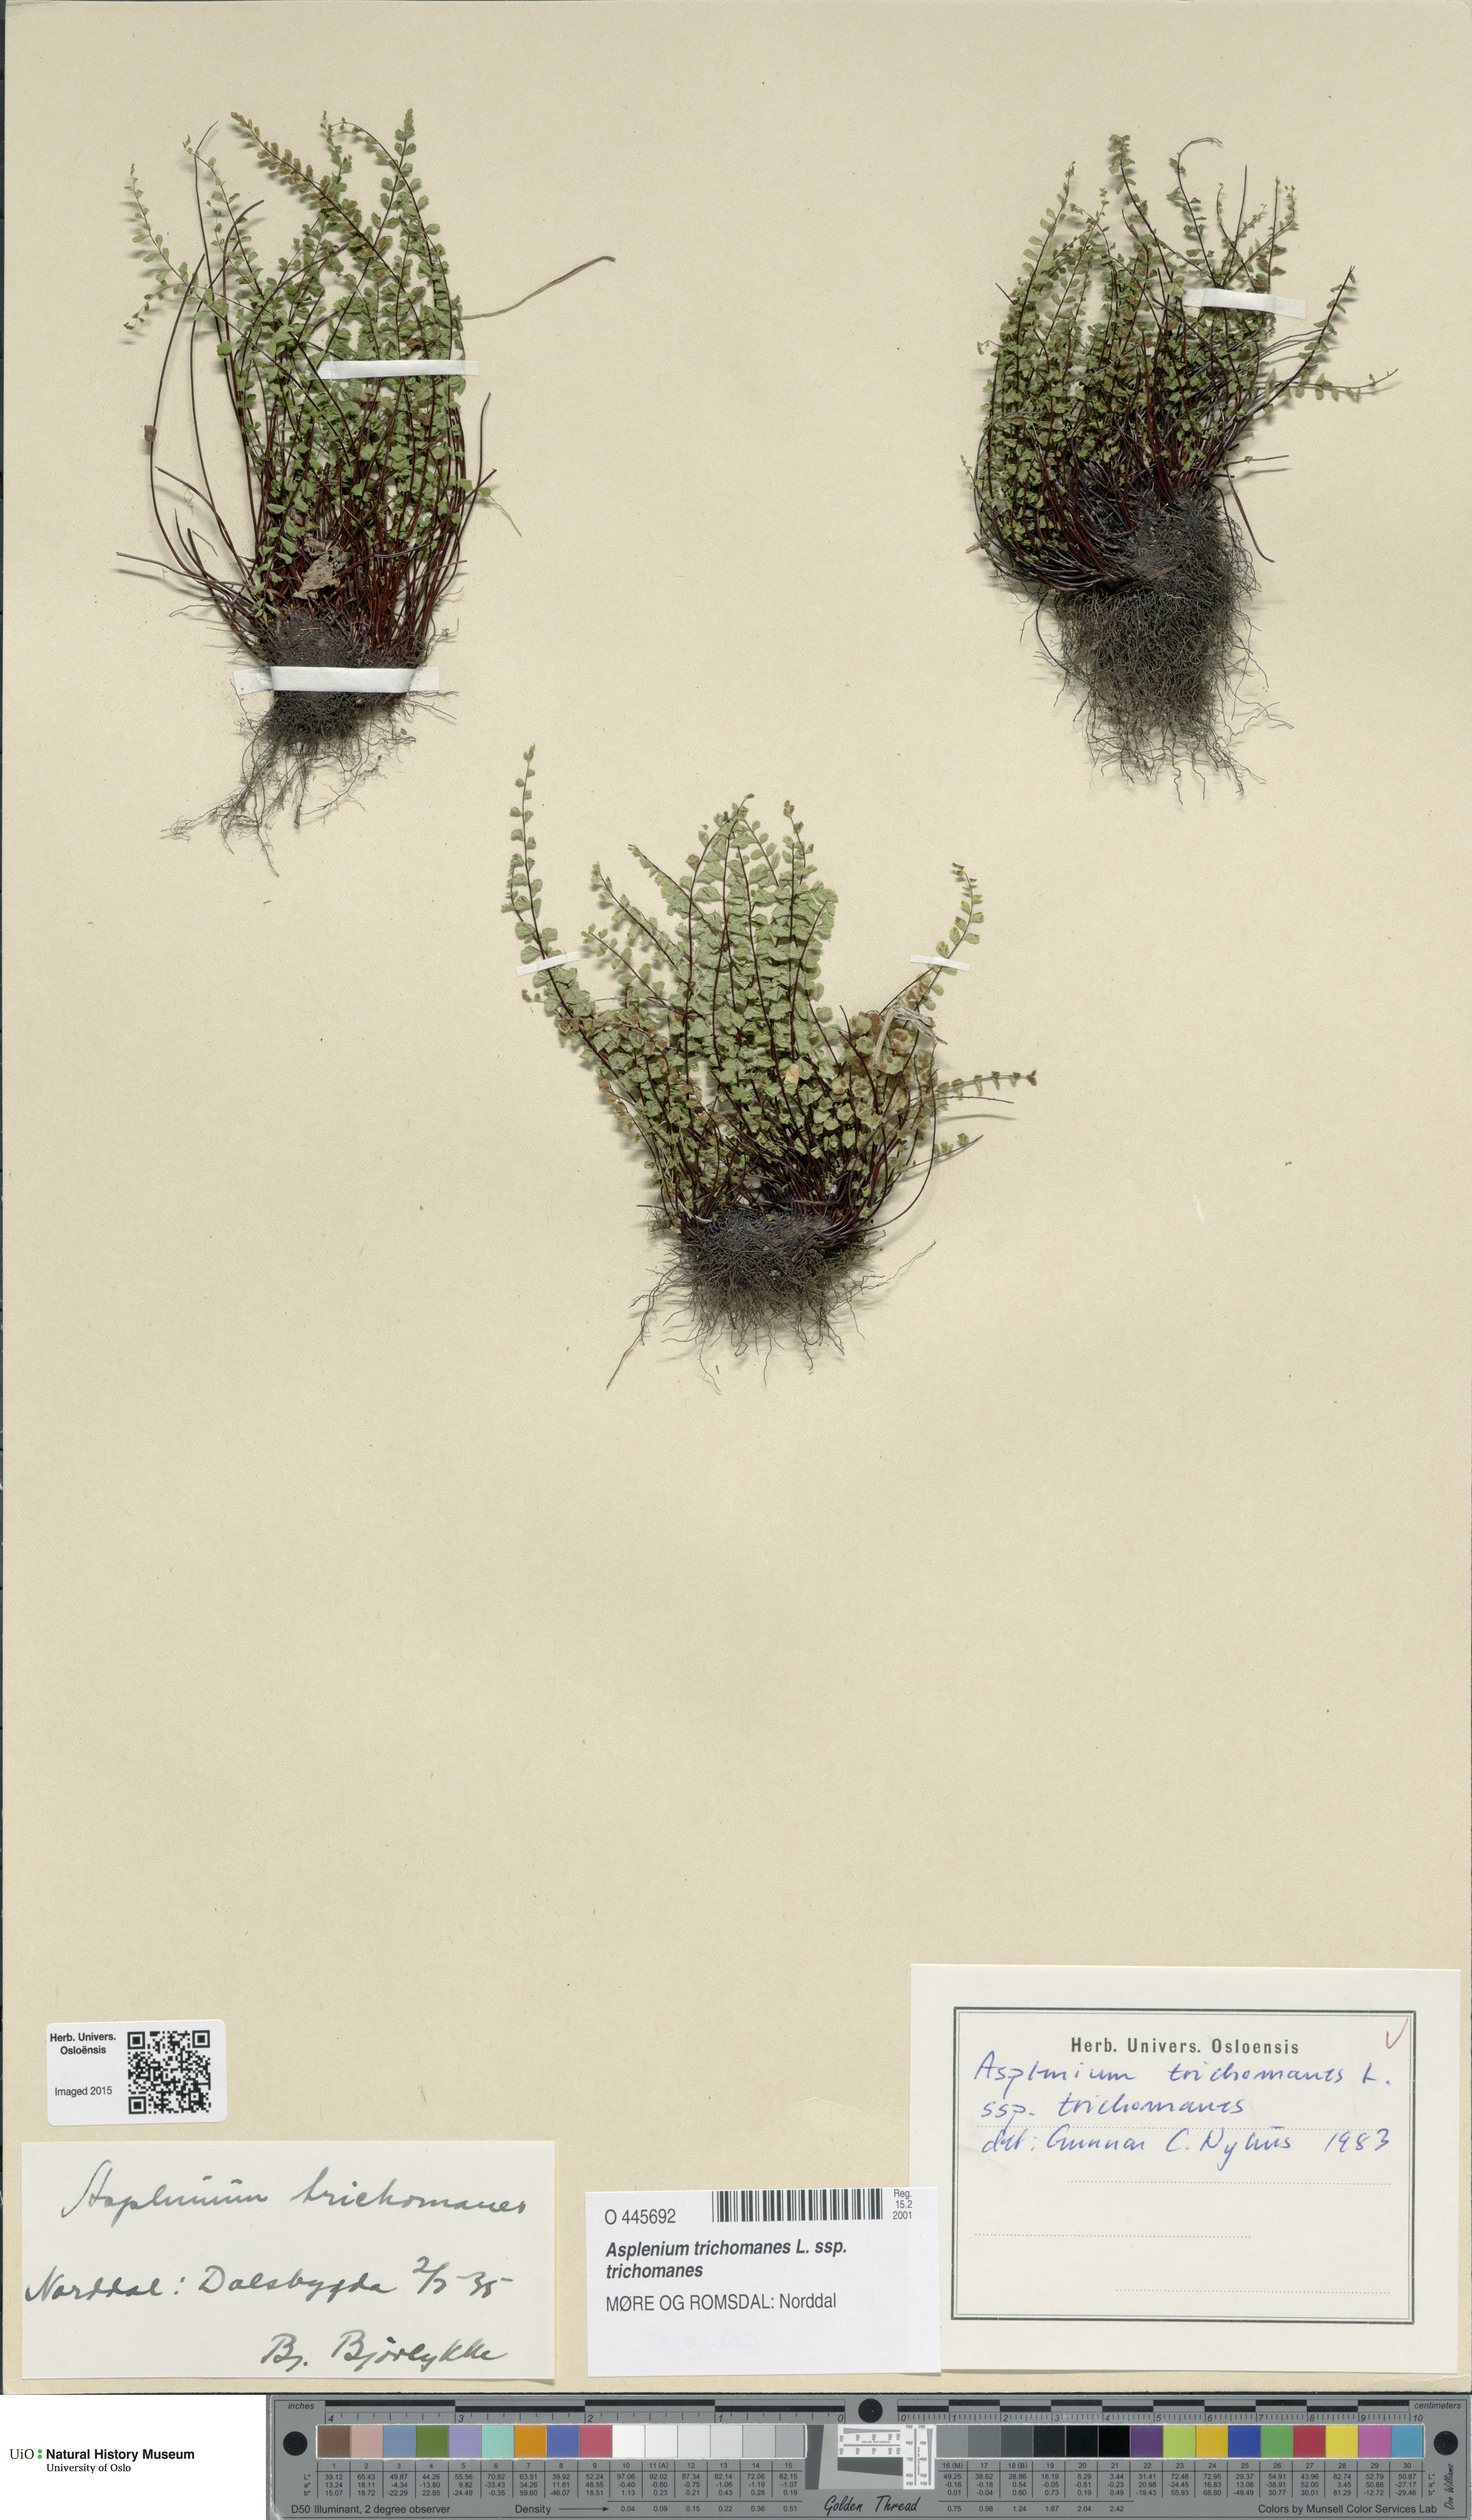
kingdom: Plantae
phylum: Tracheophyta
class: Polypodiopsida
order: Polypodiales
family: Aspleniaceae
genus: Asplenium
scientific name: Asplenium trichomanes
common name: Maidenhair spleenwort
